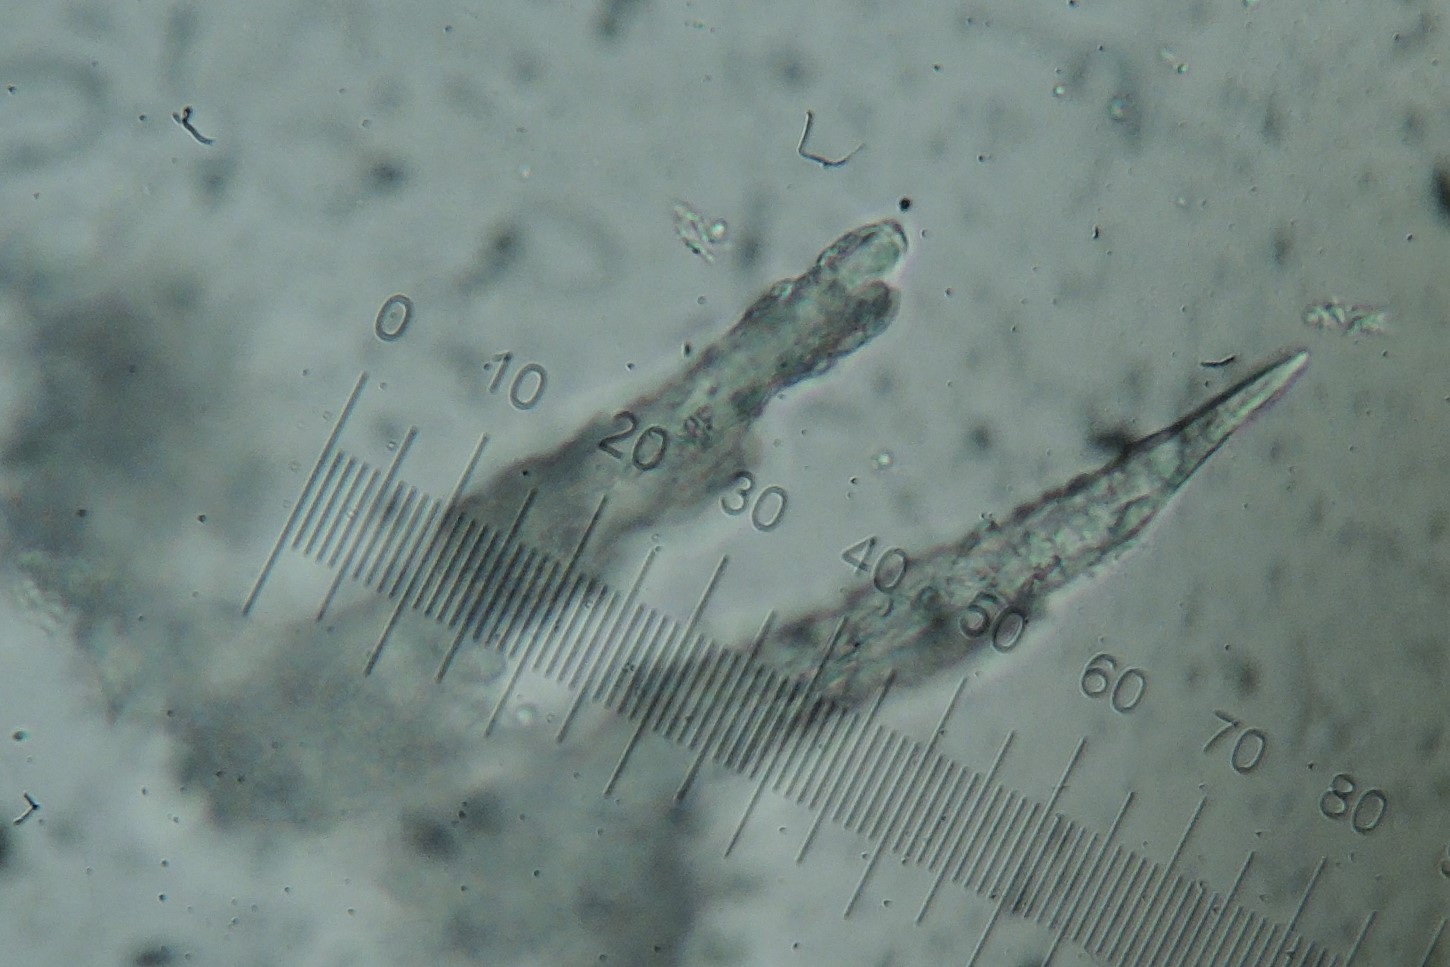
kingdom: Fungi
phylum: Basidiomycota
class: Agaricomycetes
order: Trechisporales
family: Hydnodontaceae
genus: Litschauerella
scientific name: Litschauerella clematidis
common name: kuglesporet slynghinde
